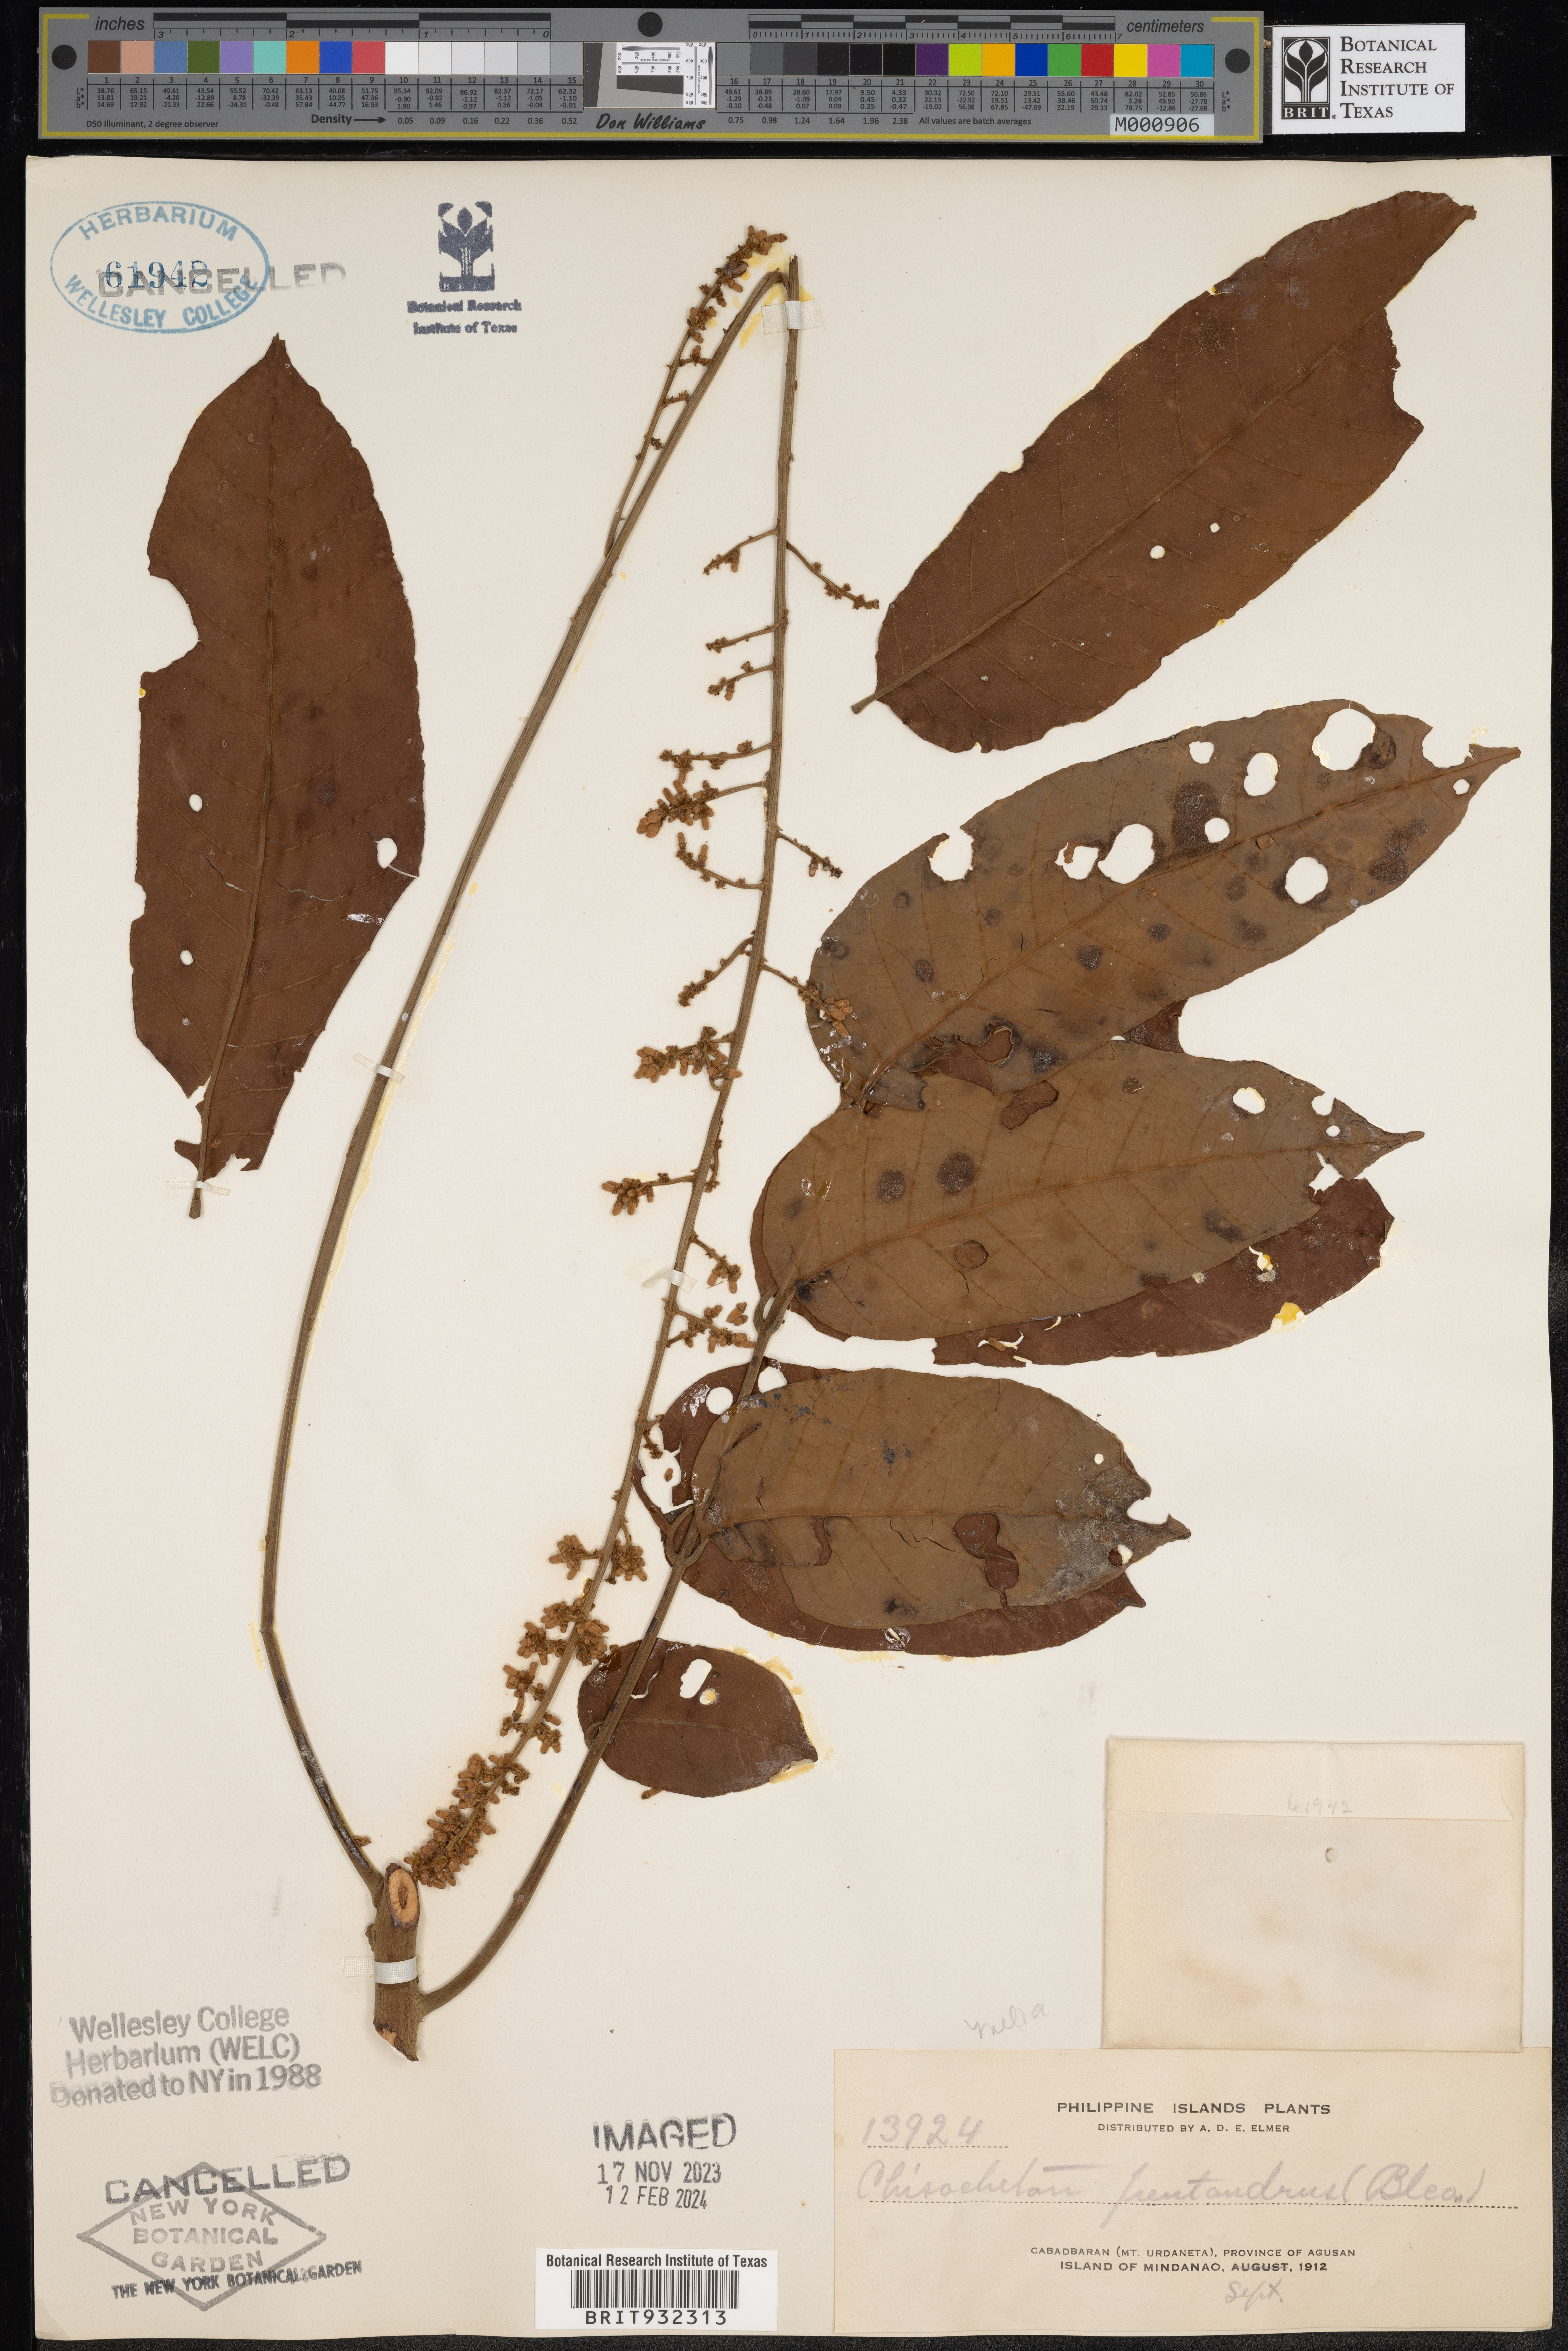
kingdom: Plantae
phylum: Tracheophyta
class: Magnoliopsida
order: Sapindales
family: Meliaceae
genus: Chisocheton
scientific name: Chisocheton
